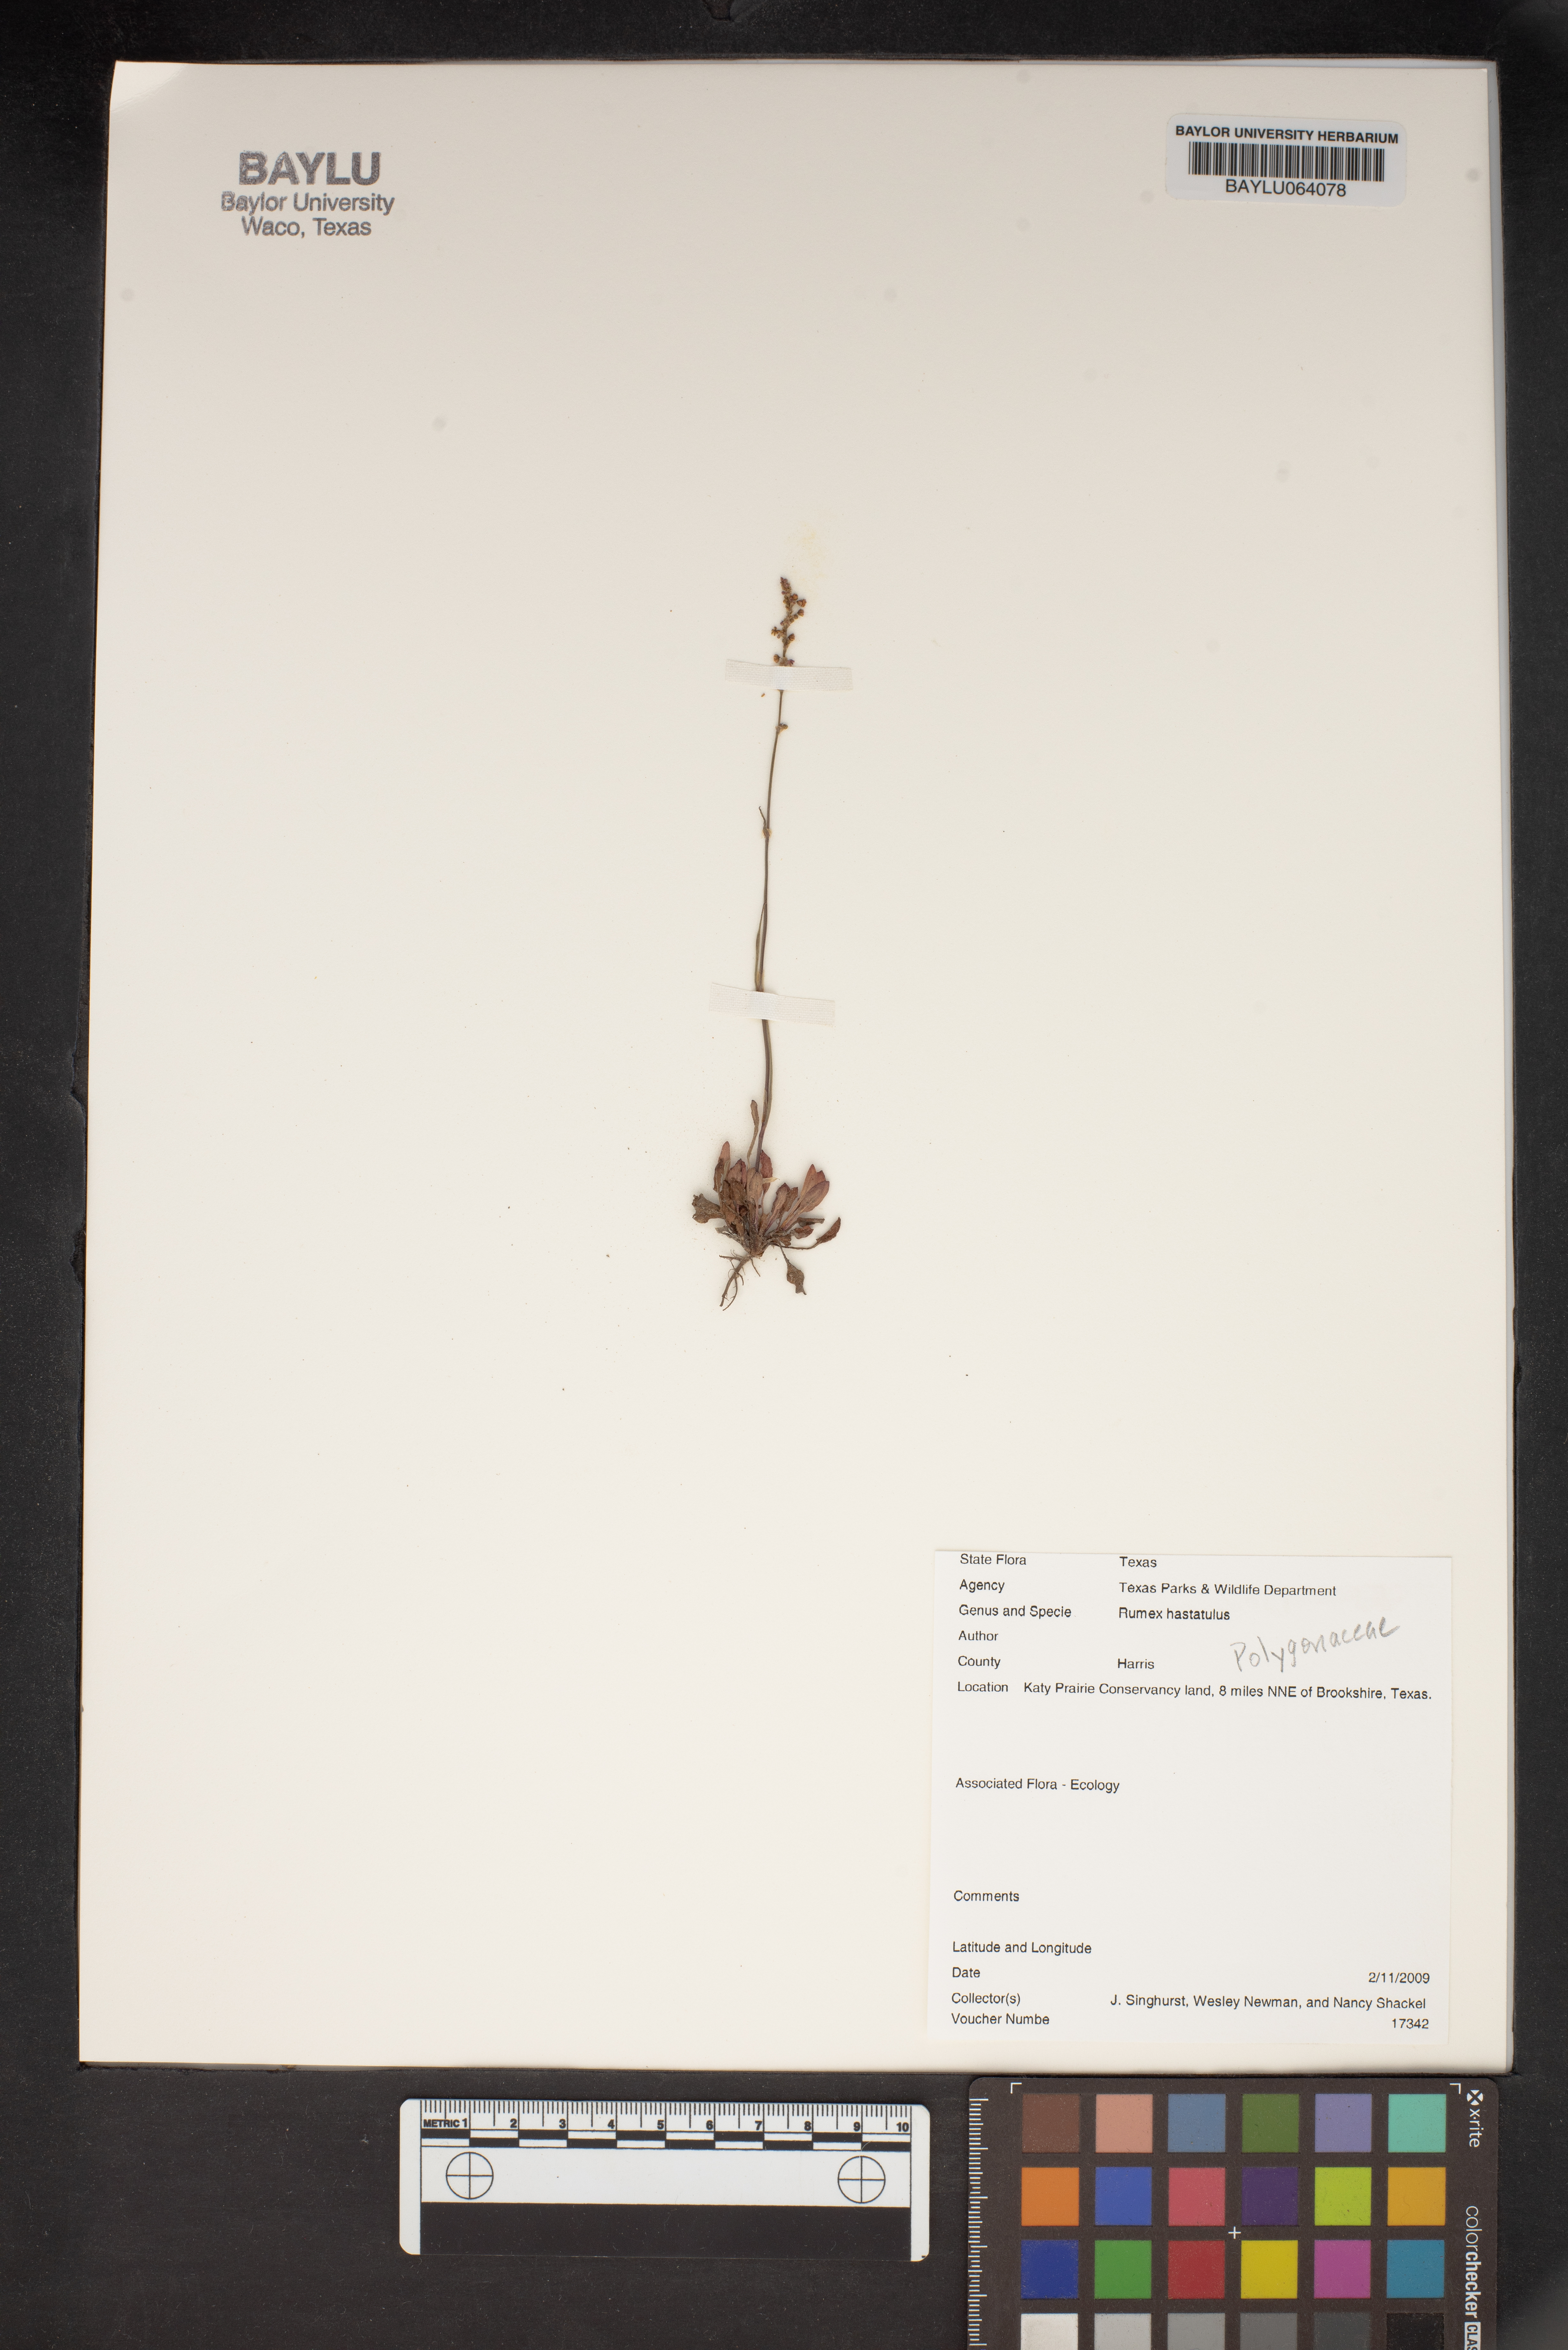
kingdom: Plantae
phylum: Tracheophyta
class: Magnoliopsida
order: Caryophyllales
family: Polygonaceae
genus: Rumex
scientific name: Rumex hastatulus
